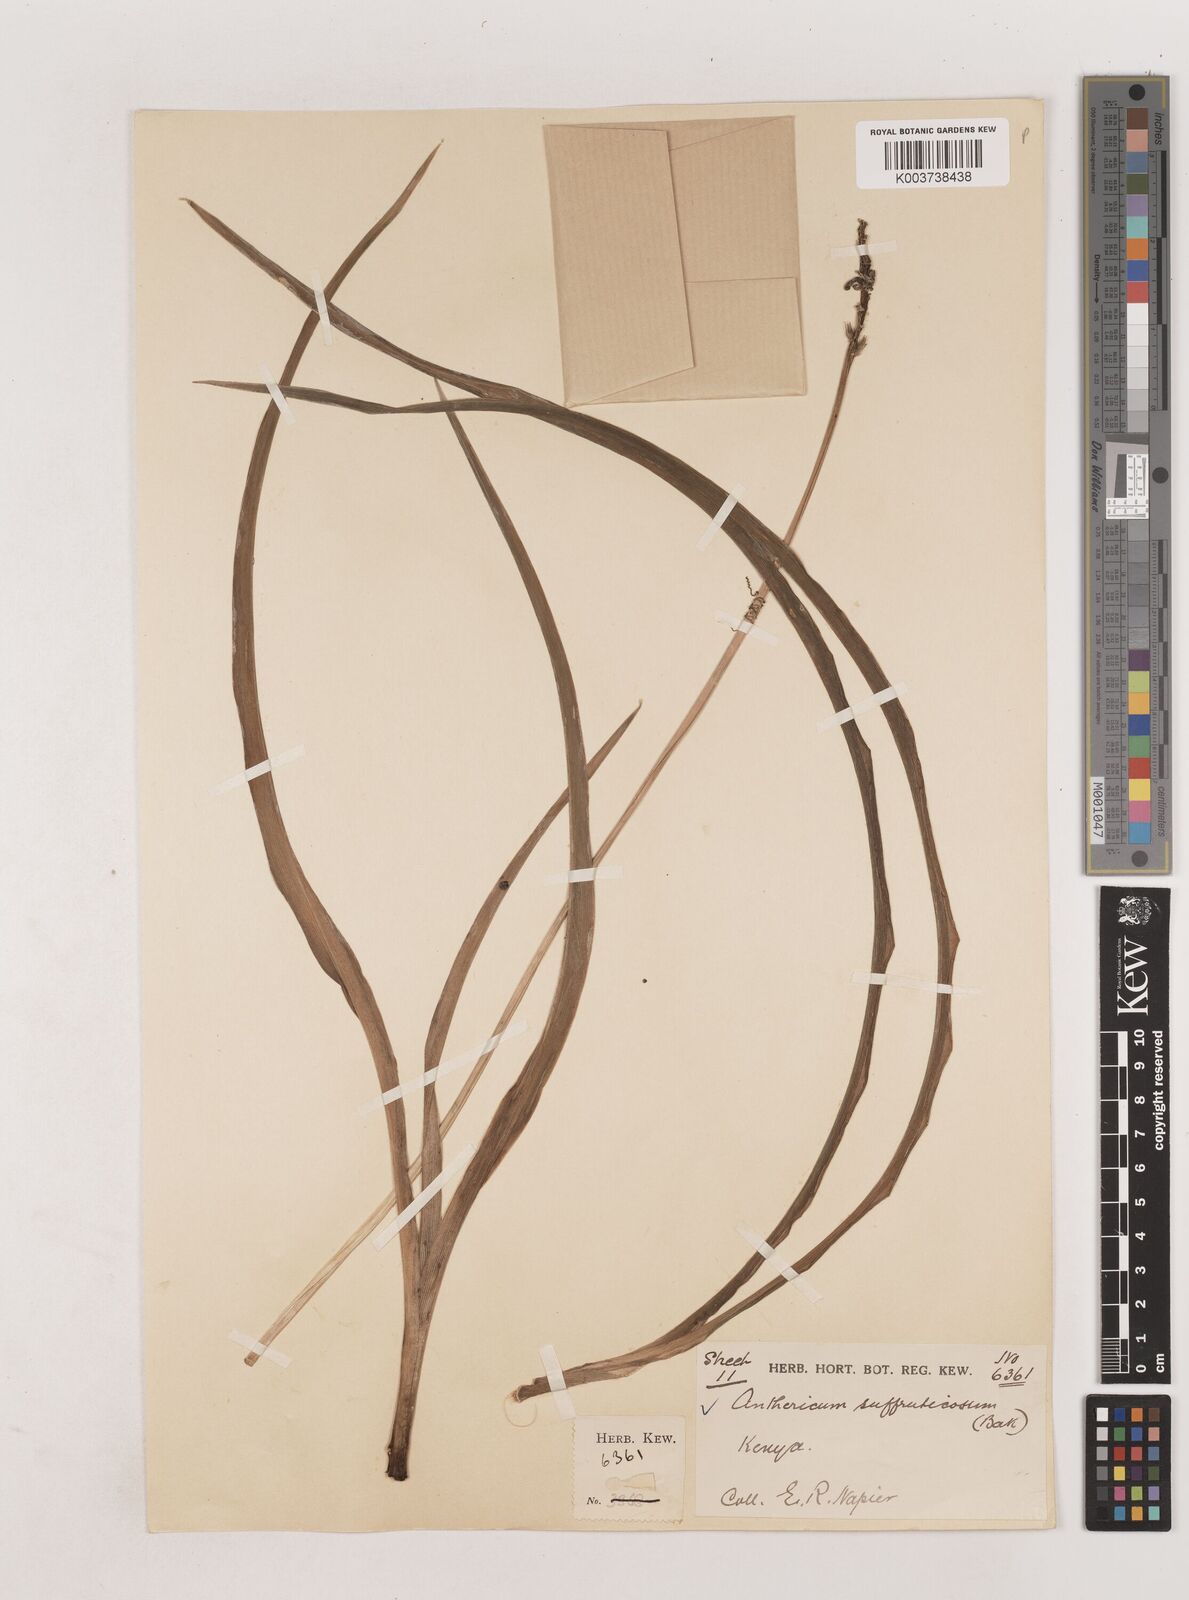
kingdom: Plantae
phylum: Tracheophyta
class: Liliopsida
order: Asparagales
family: Asparagaceae
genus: Chlorophytum
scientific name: Chlorophytum suffruticosum
